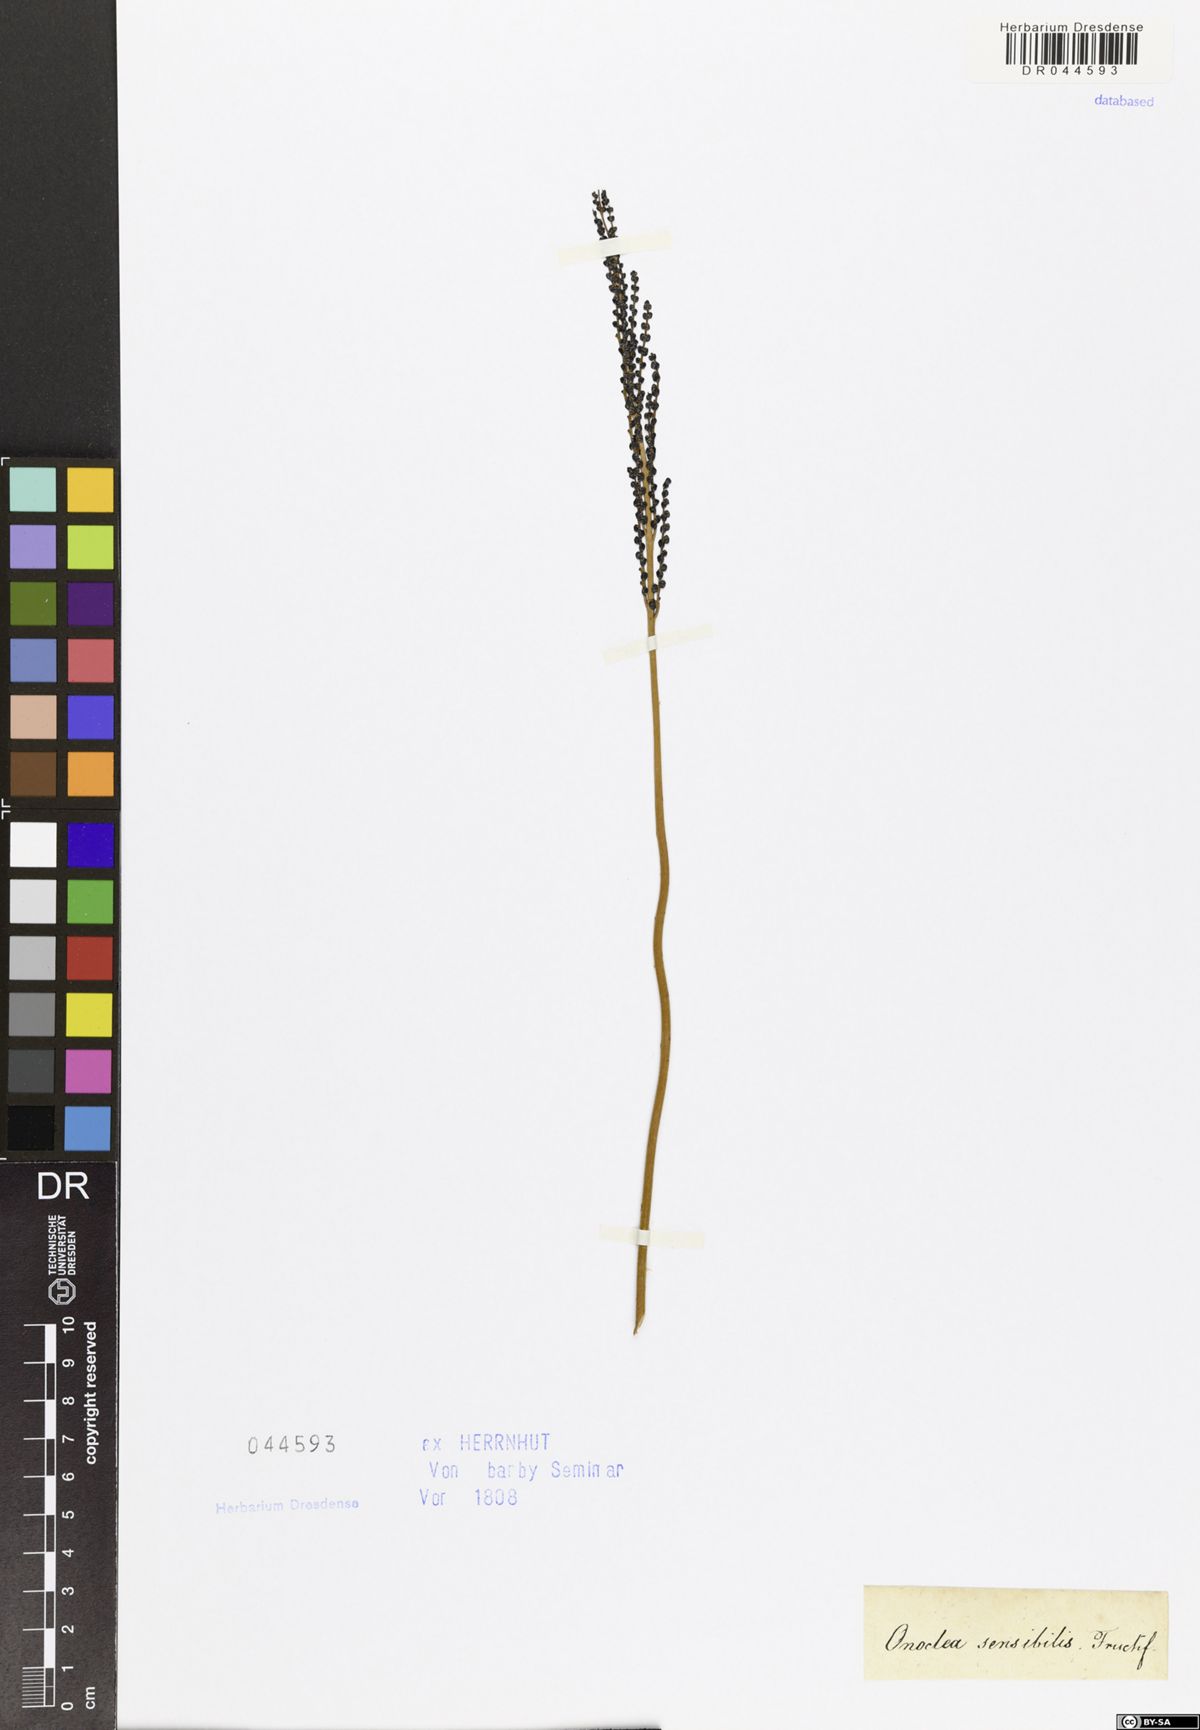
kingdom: Plantae
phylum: Tracheophyta
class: Polypodiopsida
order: Polypodiales
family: Onocleaceae
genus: Onoclea
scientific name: Onoclea sensibilis
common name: Sensitive fern
